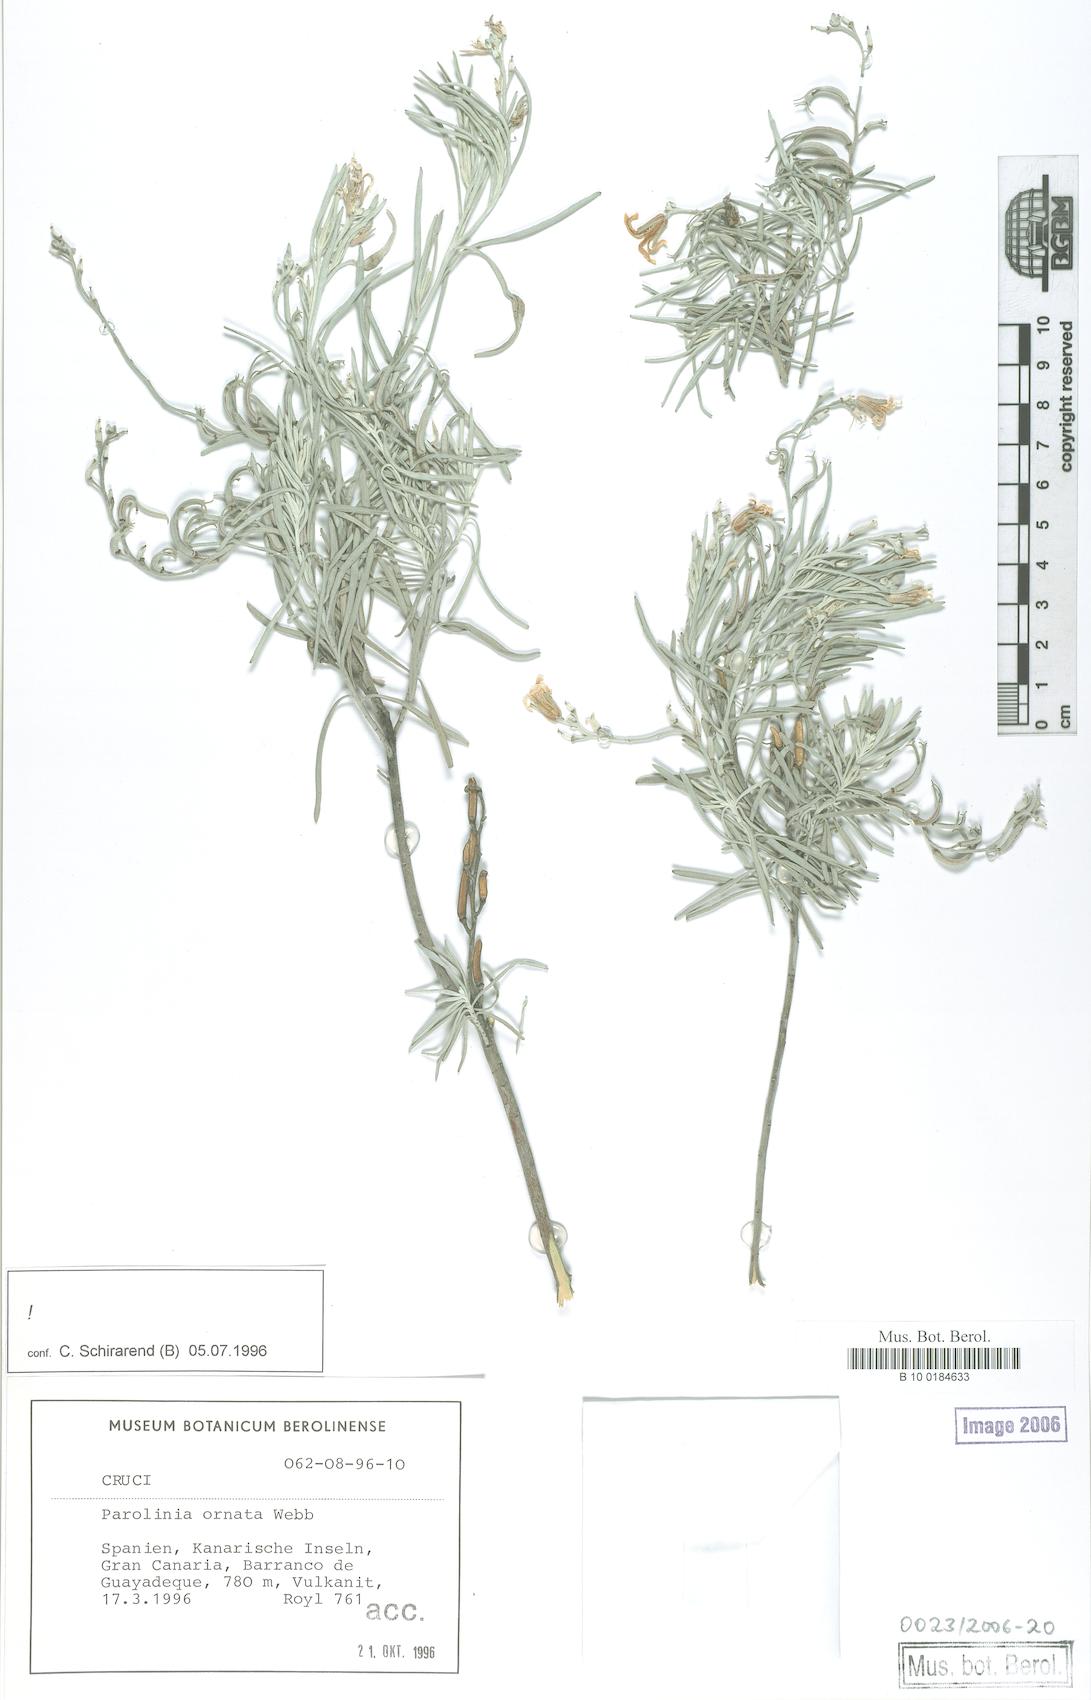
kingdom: Plantae
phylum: Tracheophyta
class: Magnoliopsida
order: Brassicales
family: Brassicaceae
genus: Parolinia
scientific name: Parolinia ornata
